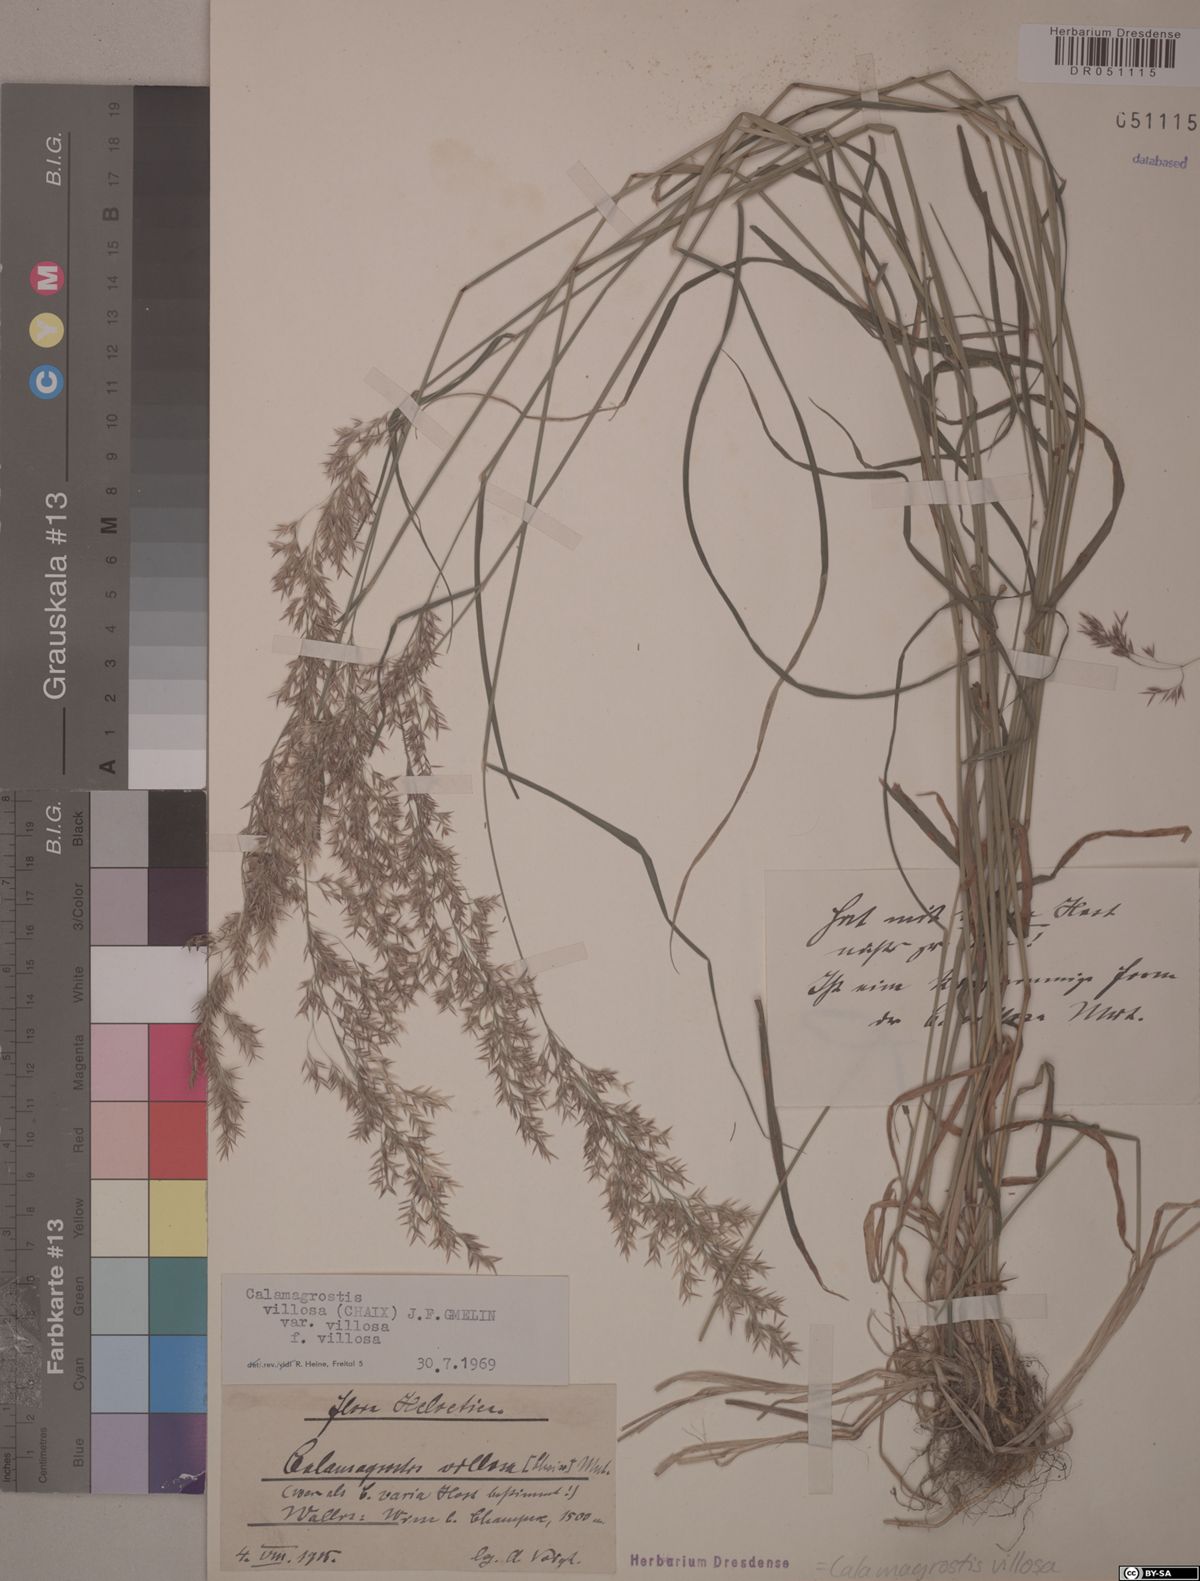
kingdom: Plantae
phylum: Tracheophyta
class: Liliopsida
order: Poales
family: Poaceae
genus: Calamagrostis
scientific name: Calamagrostis villosa
